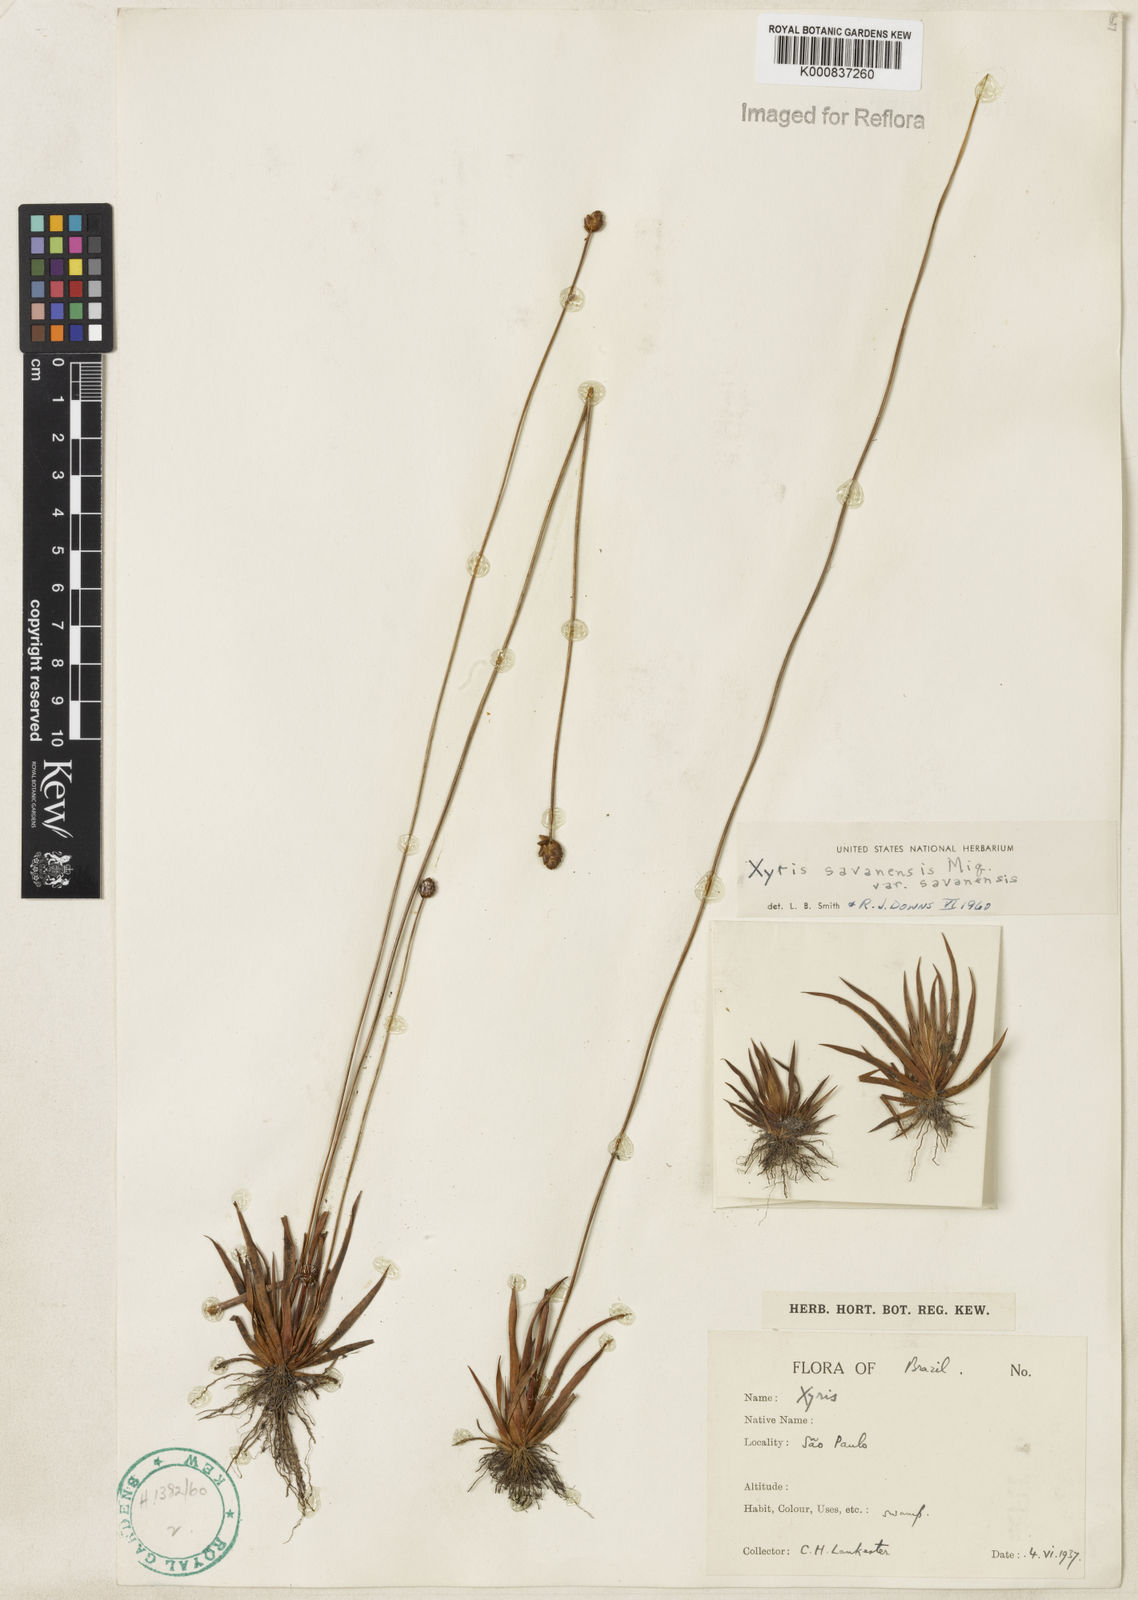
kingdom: Plantae
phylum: Tracheophyta
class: Liliopsida
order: Poales
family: Xyridaceae
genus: Xyris
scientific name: Xyris savanensis
